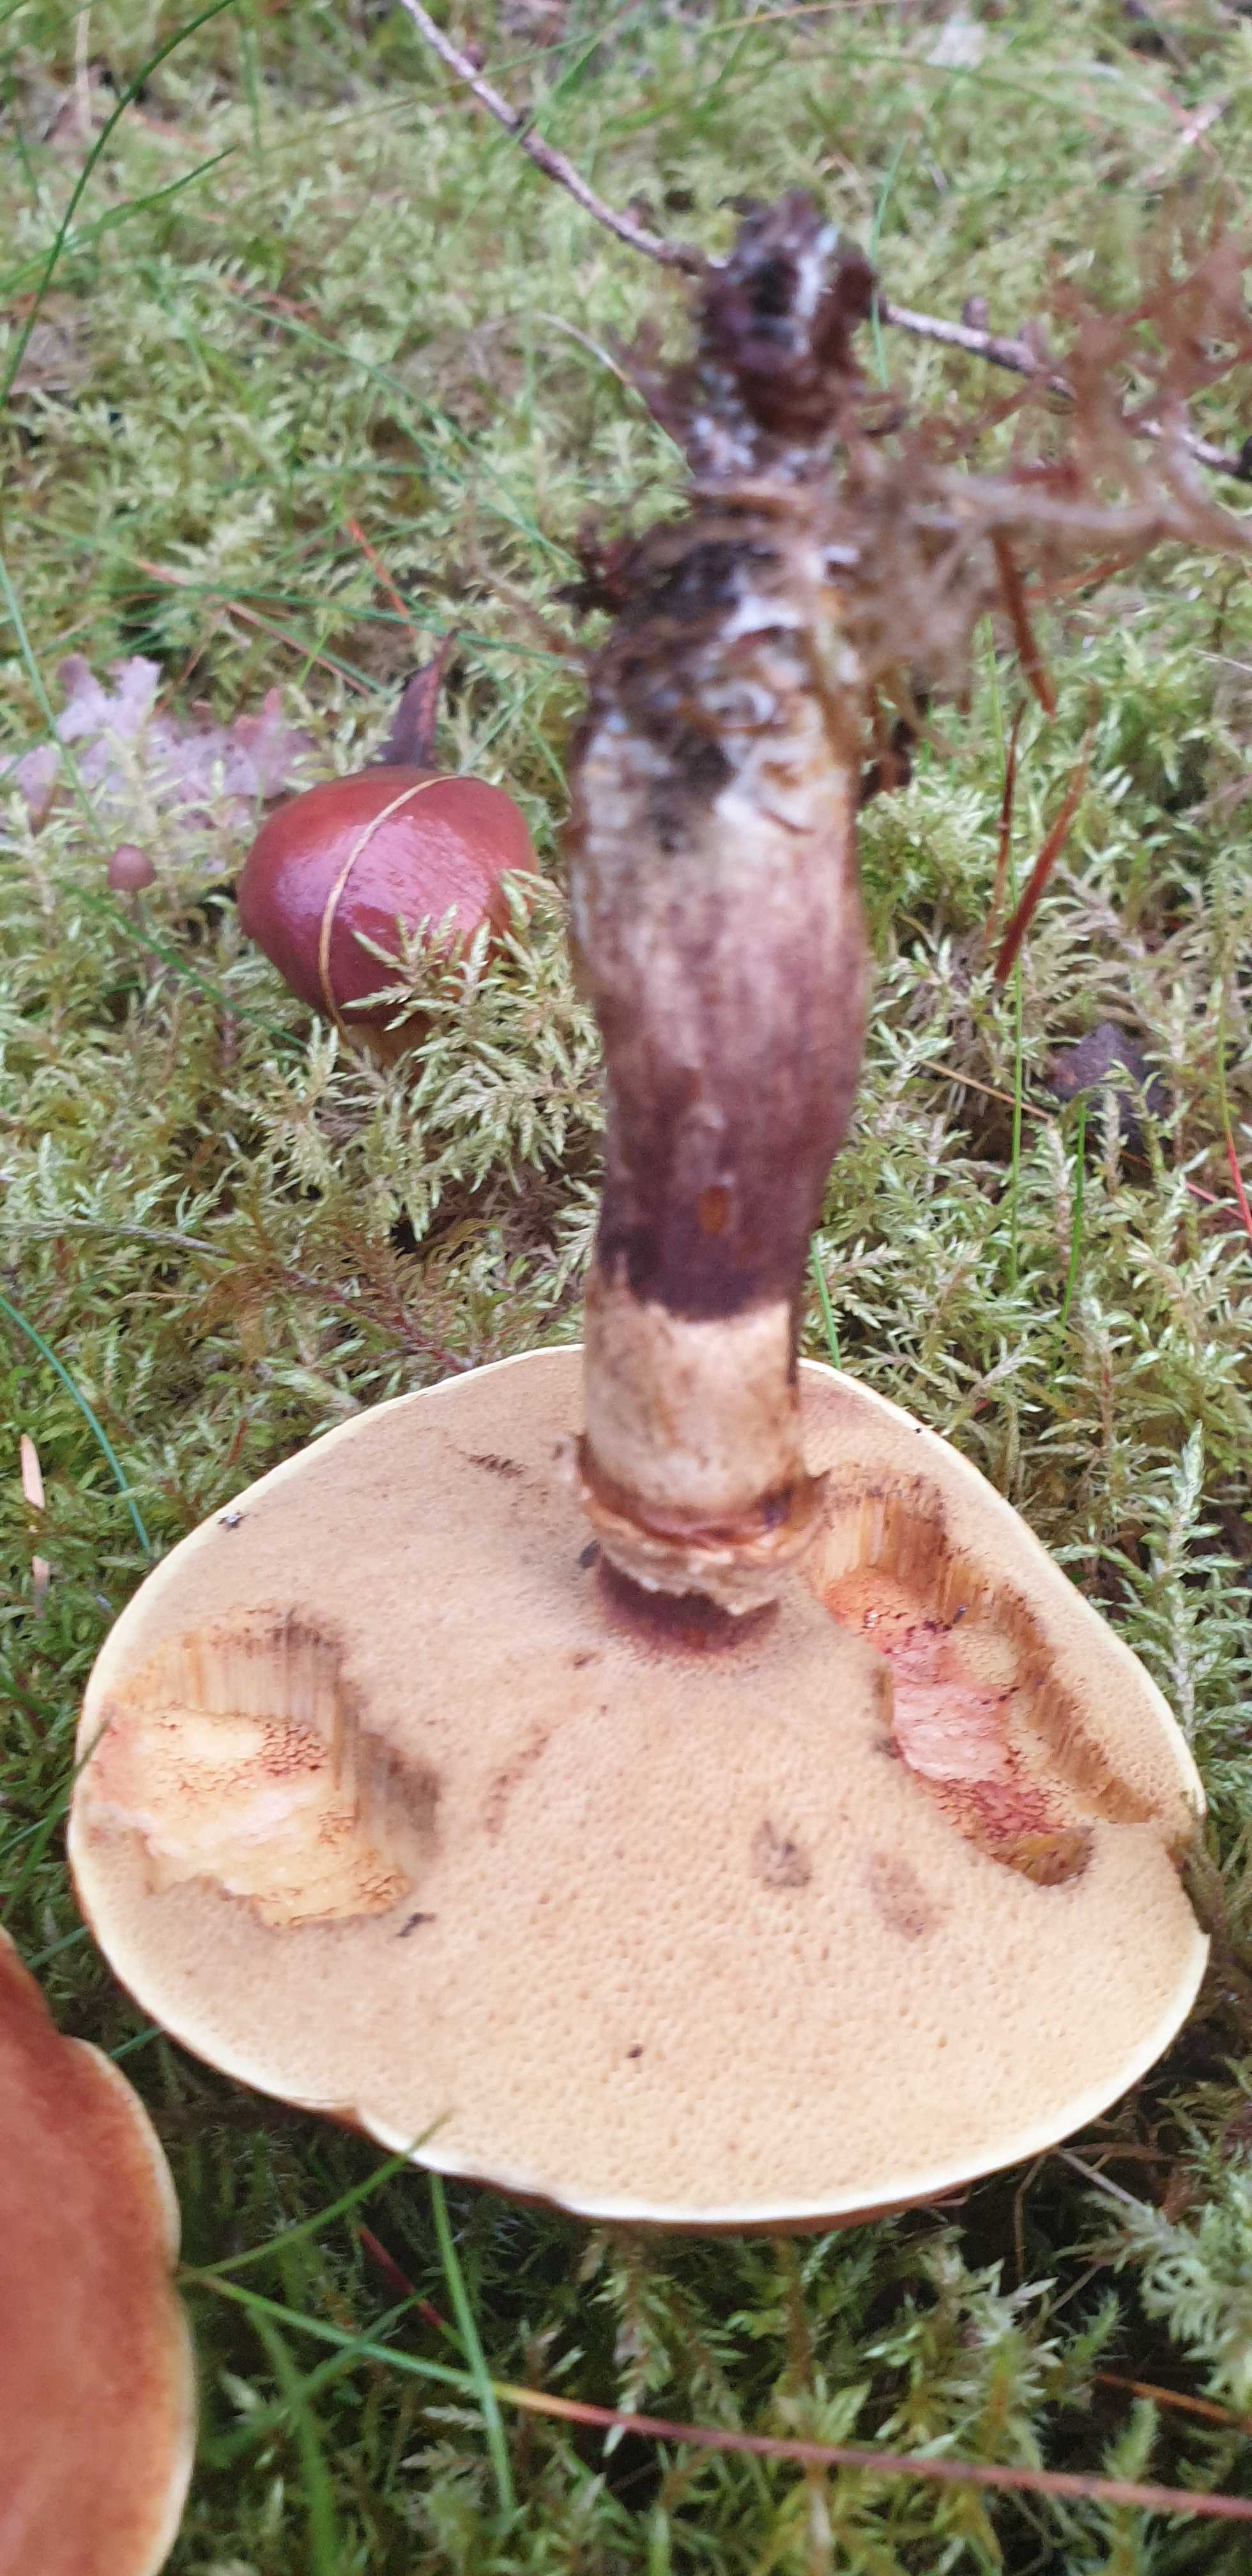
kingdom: Fungi
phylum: Basidiomycota
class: Agaricomycetes
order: Boletales
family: Suillaceae
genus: Suillus
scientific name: Suillus grevillei
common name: lærke-slimrørhat
